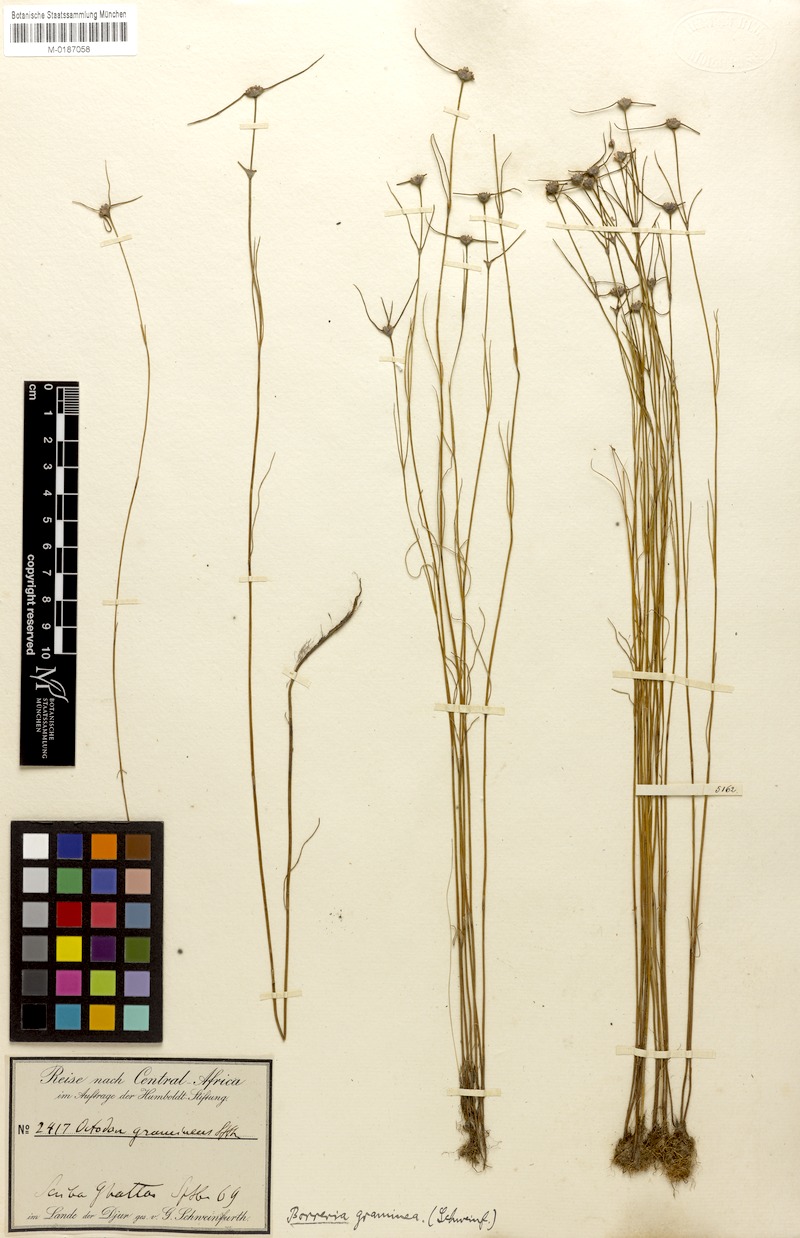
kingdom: Plantae
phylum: Tracheophyta
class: Magnoliopsida
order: Gentianales
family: Rubiaceae
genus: Spermacoce
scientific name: Spermacoce filifolia
